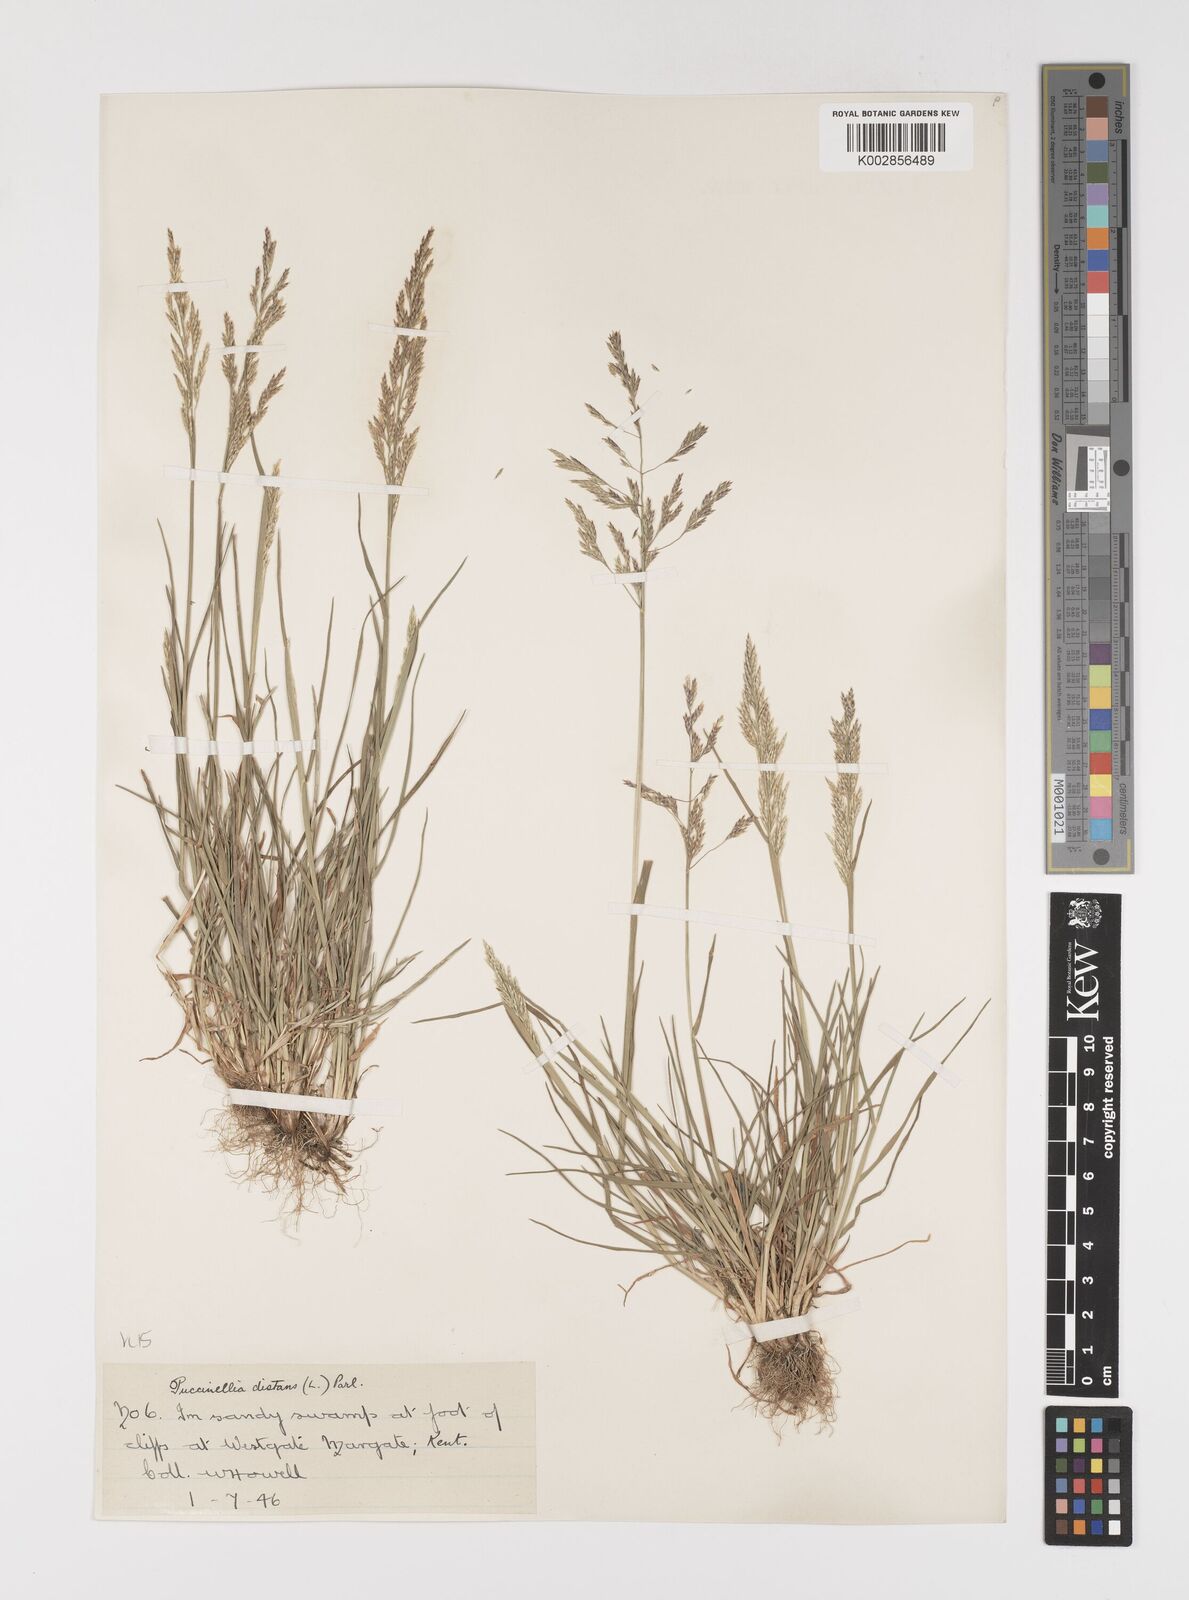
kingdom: Plantae
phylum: Tracheophyta
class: Liliopsida
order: Poales
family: Poaceae
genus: Puccinellia
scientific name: Puccinellia distans
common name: Weeping alkaligrass
